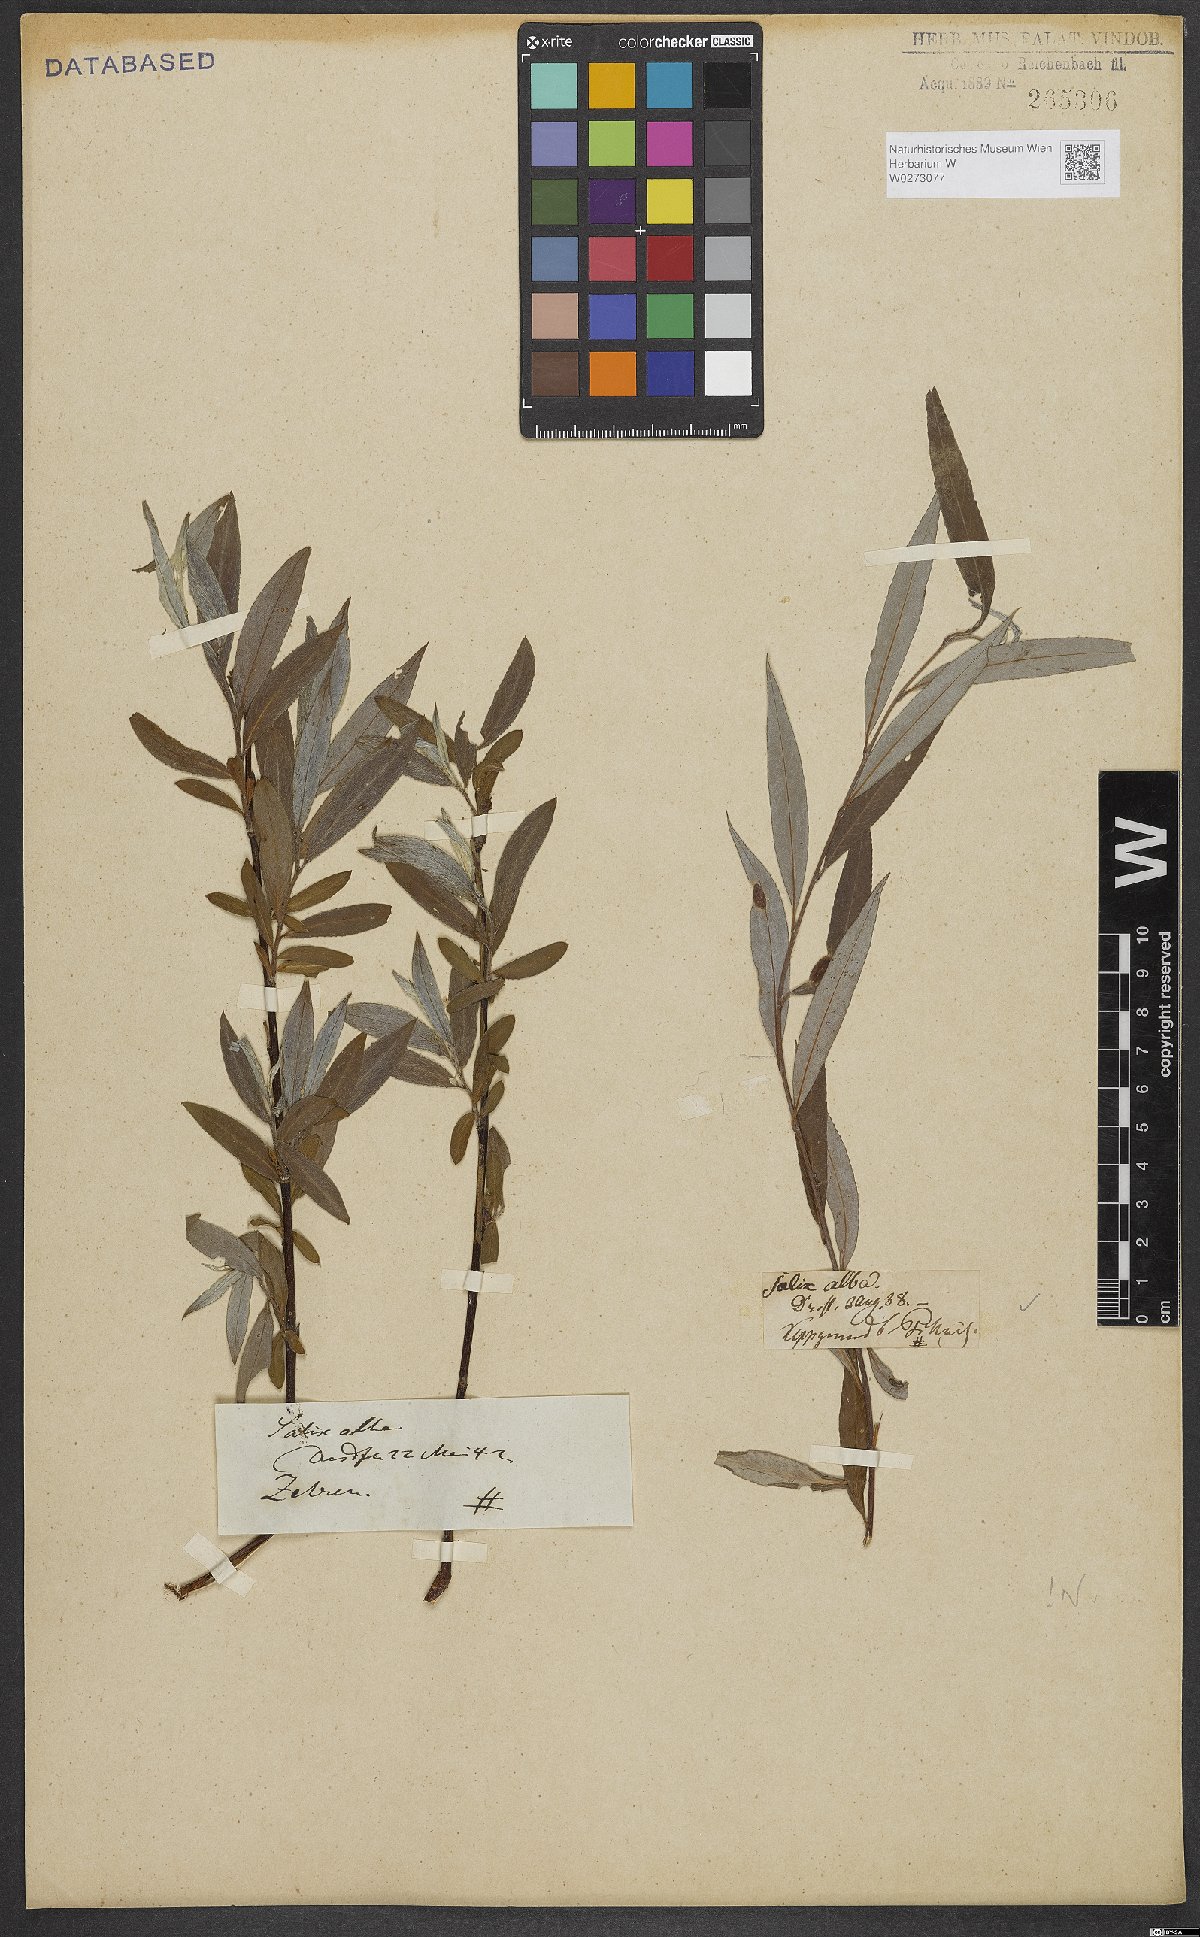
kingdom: Plantae
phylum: Tracheophyta
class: Magnoliopsida
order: Malpighiales
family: Salicaceae
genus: Salix
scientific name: Salix alba
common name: White willow
